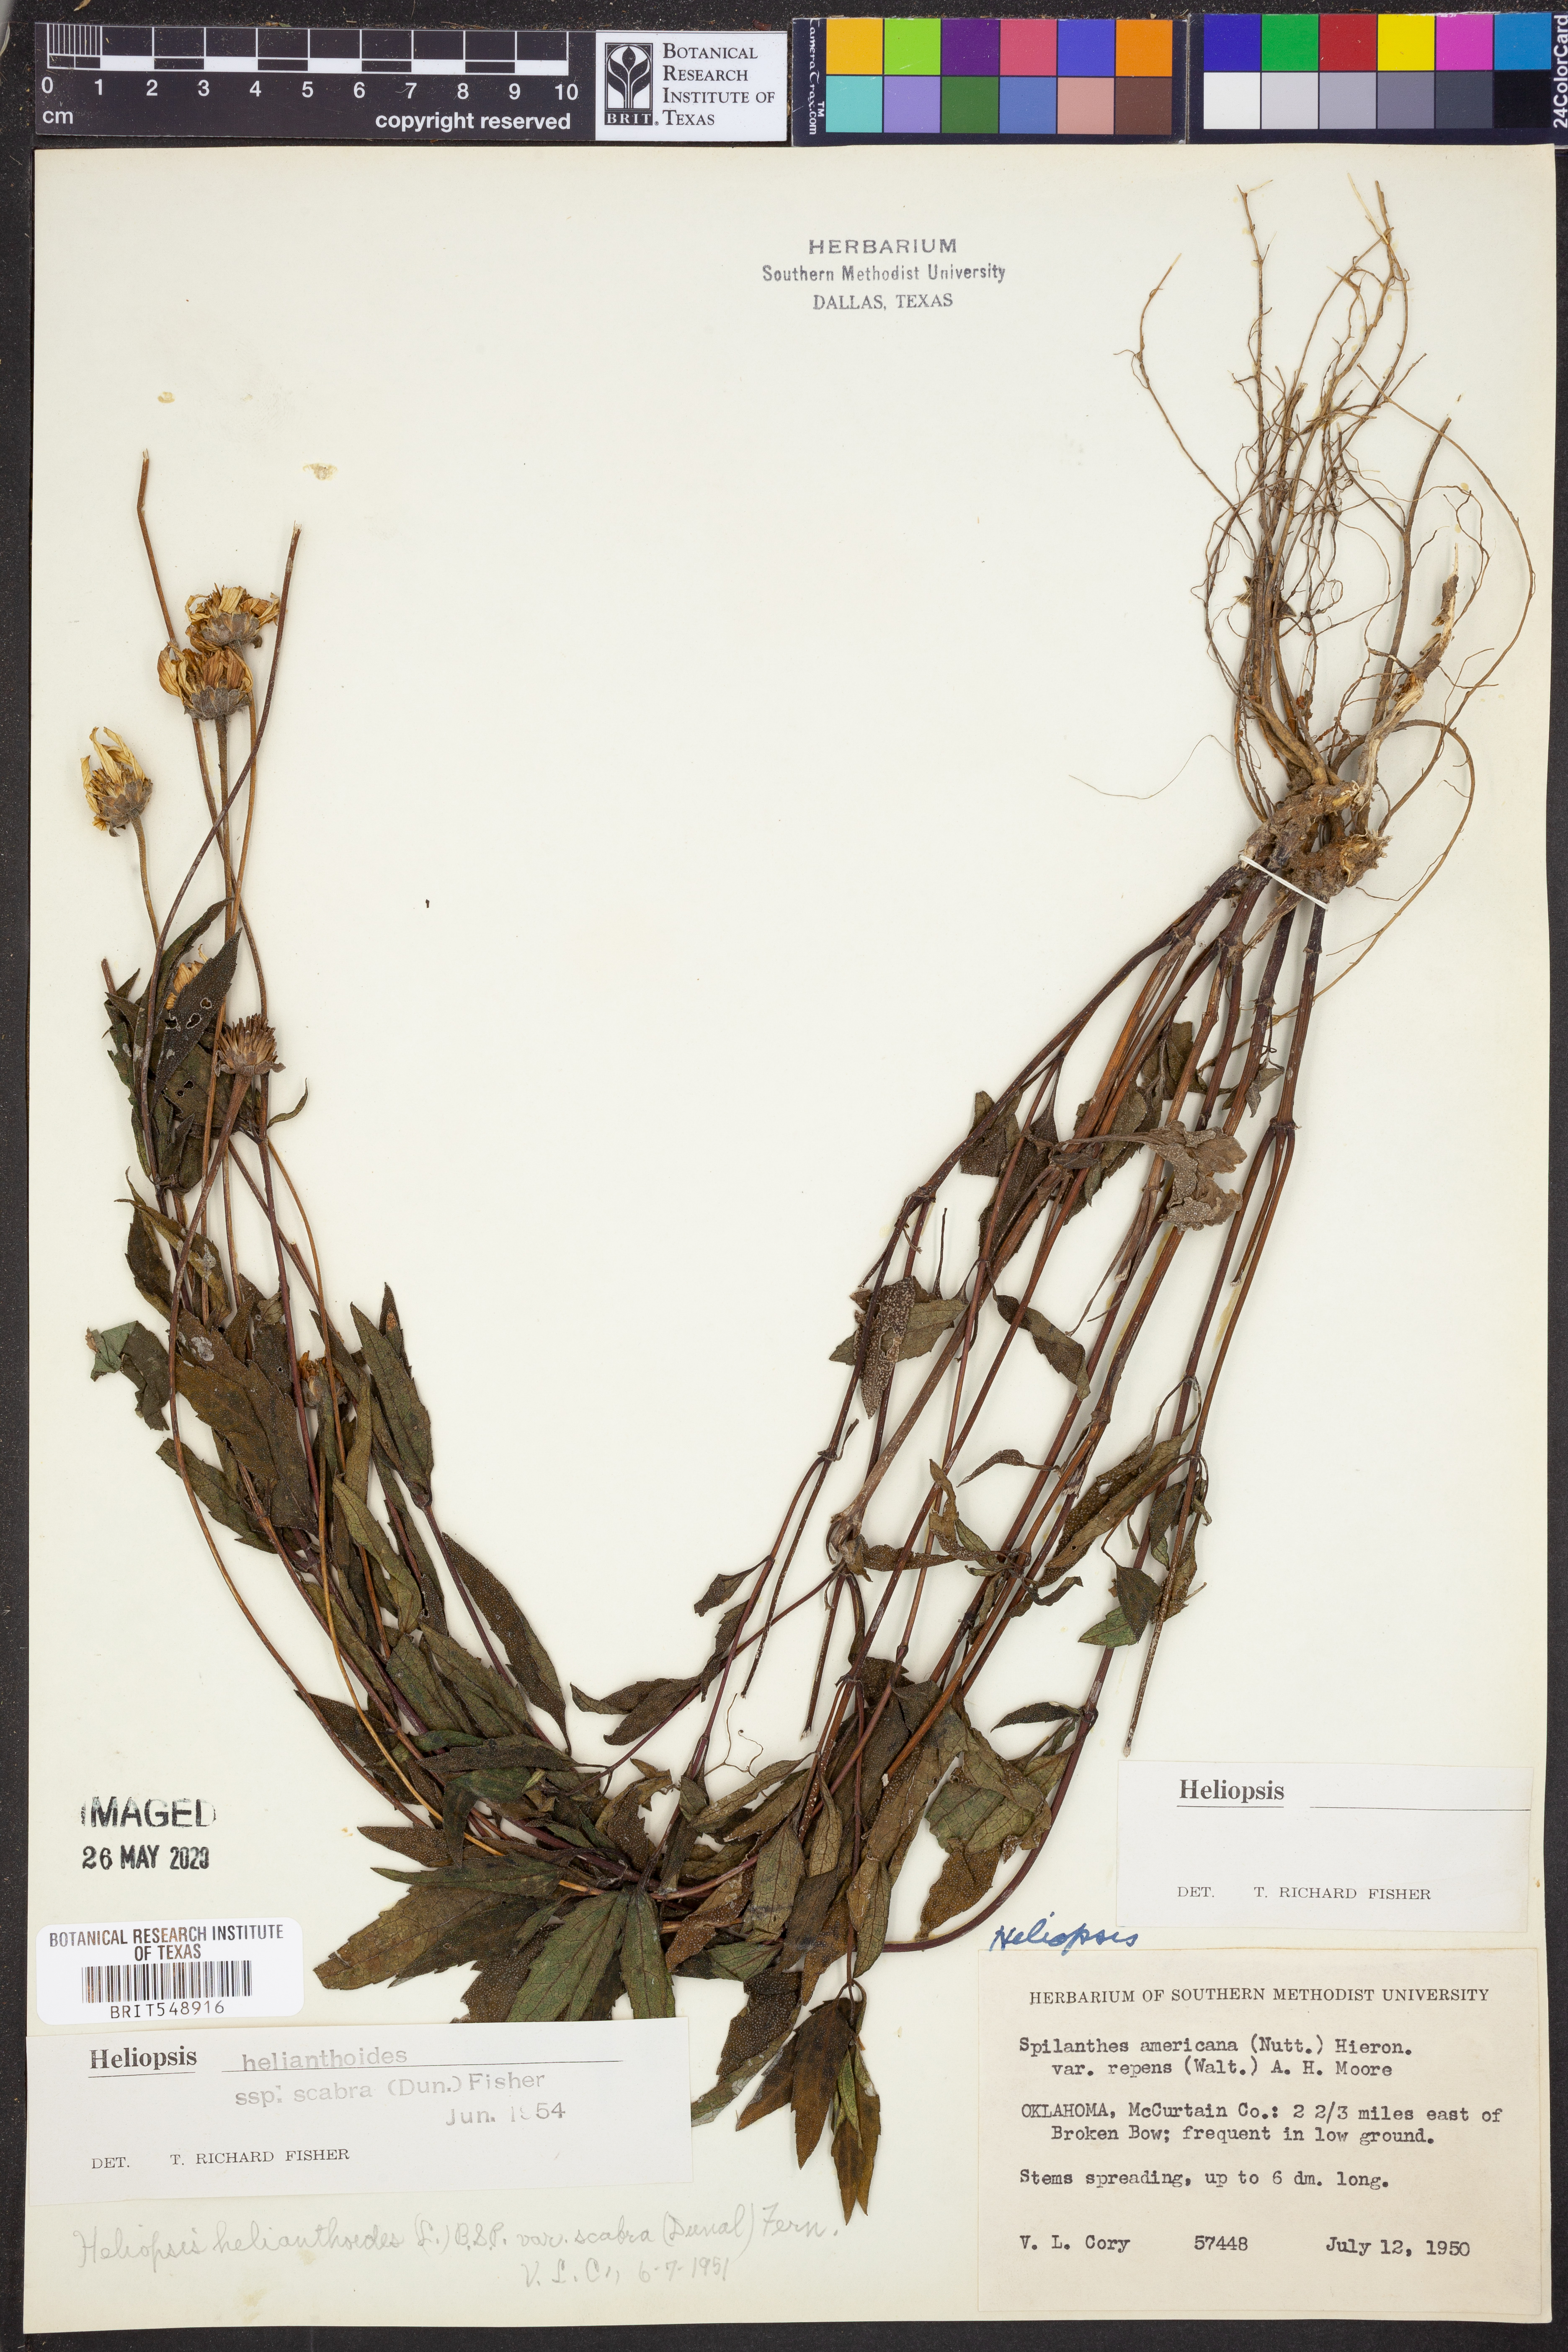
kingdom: Plantae
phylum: Tracheophyta
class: Magnoliopsida
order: Asterales
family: Asteraceae
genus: Heliopsis
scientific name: Heliopsis helianthoides
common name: False sunflower
